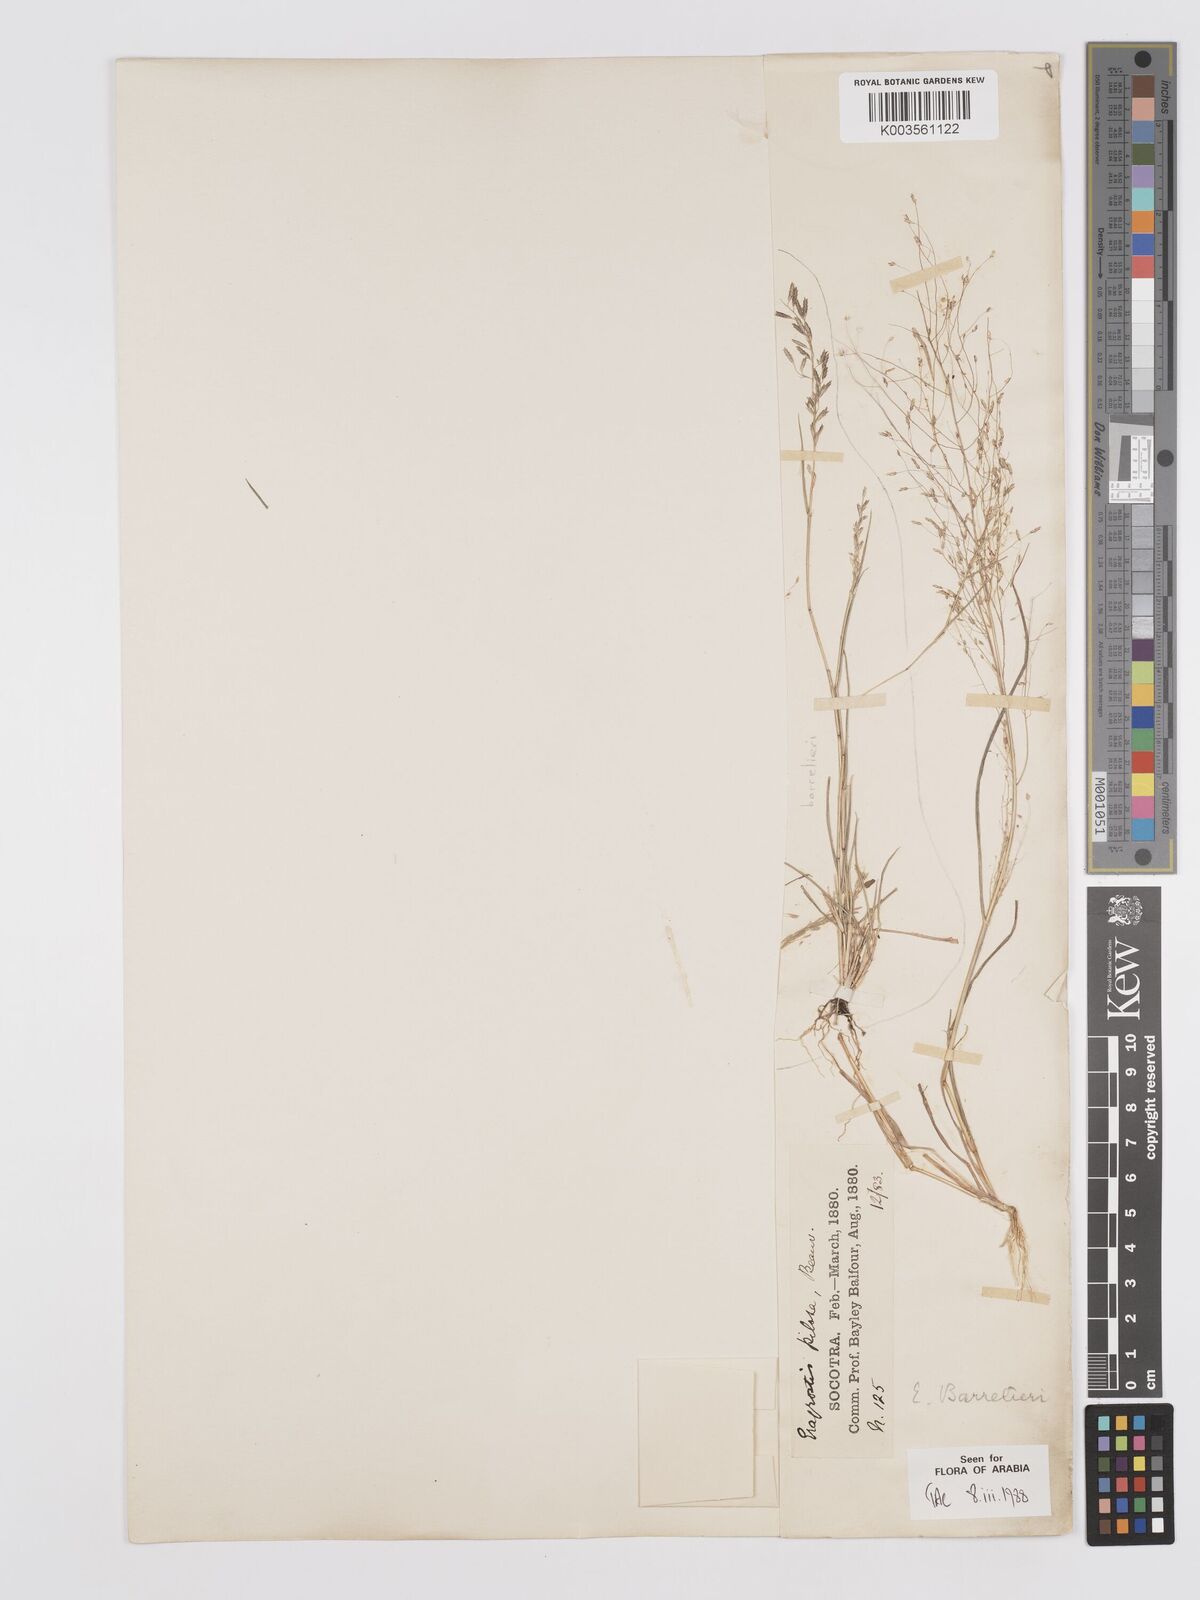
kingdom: Plantae
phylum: Tracheophyta
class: Liliopsida
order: Poales
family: Poaceae
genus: Eragrostis
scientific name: Eragrostis barrelieri
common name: Mediterranean lovegrass
